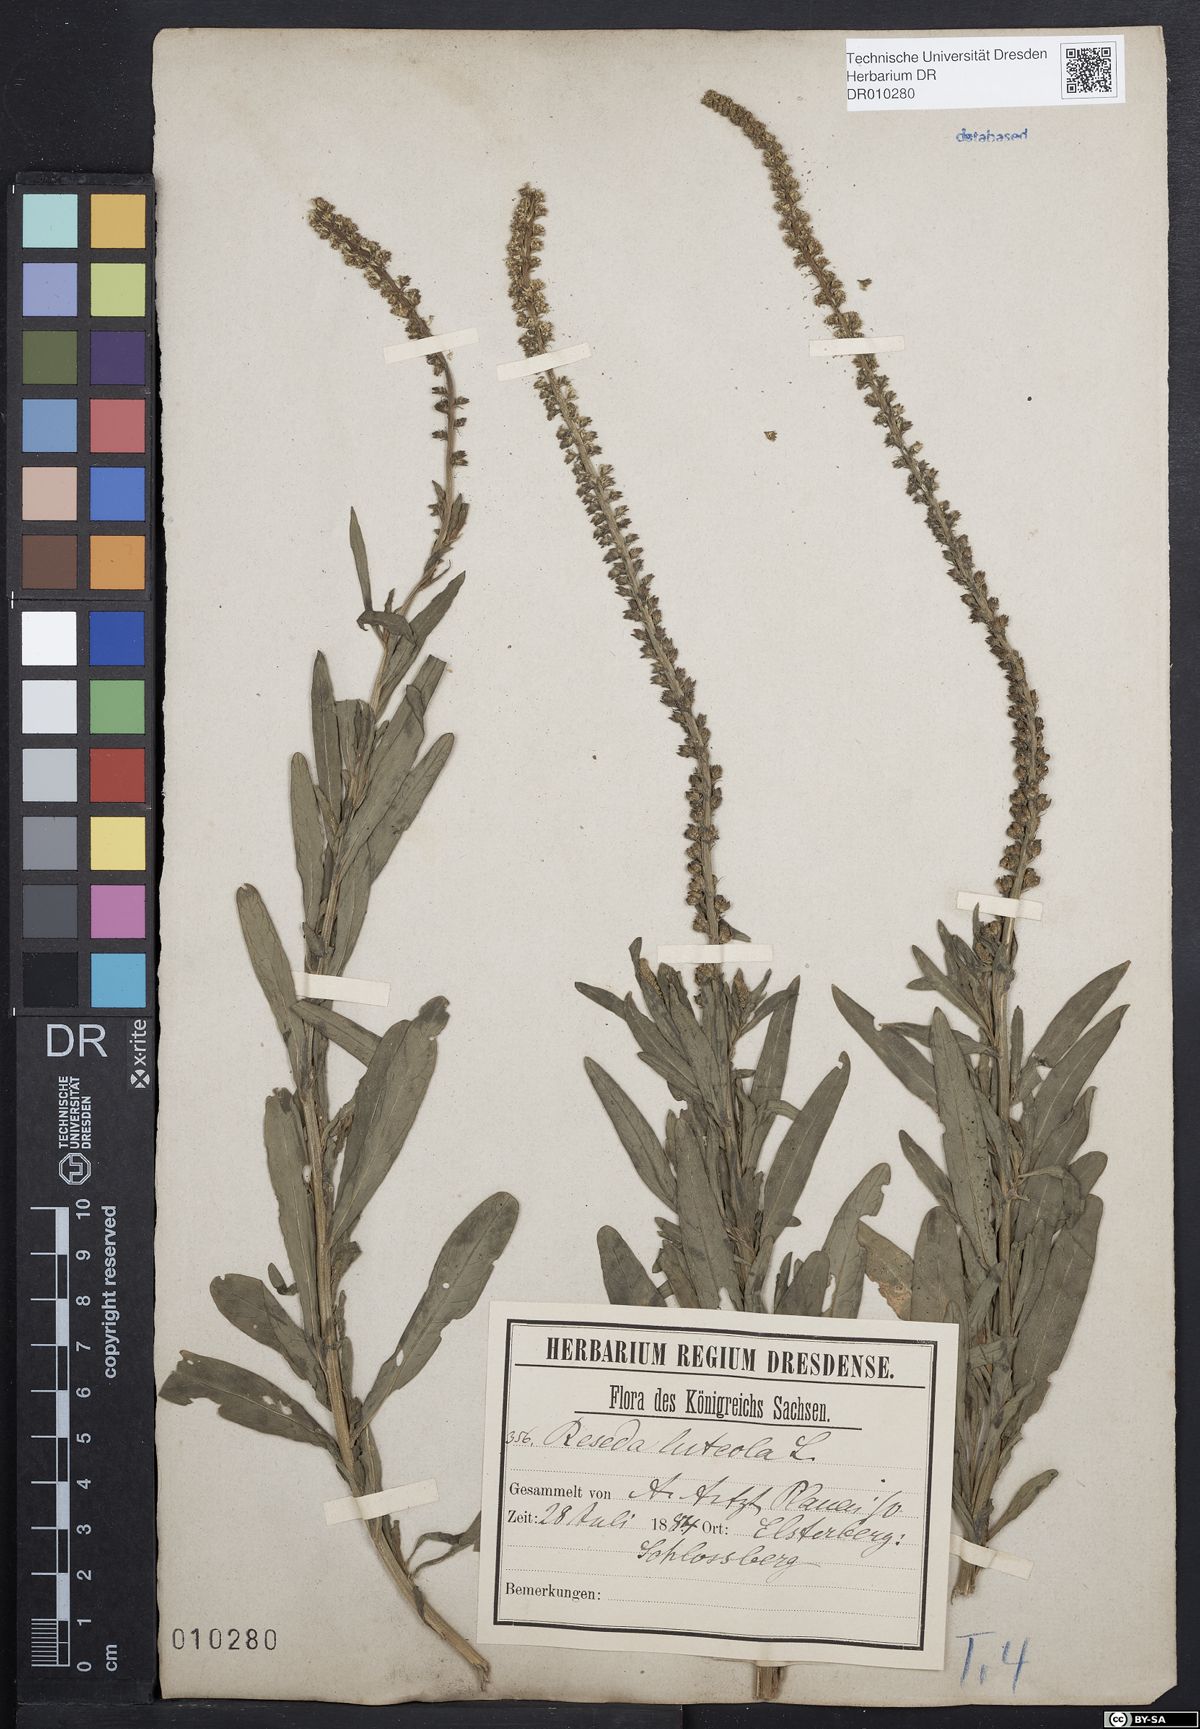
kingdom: Plantae
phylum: Tracheophyta
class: Magnoliopsida
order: Brassicales
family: Resedaceae
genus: Reseda
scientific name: Reseda luteola
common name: Weld
